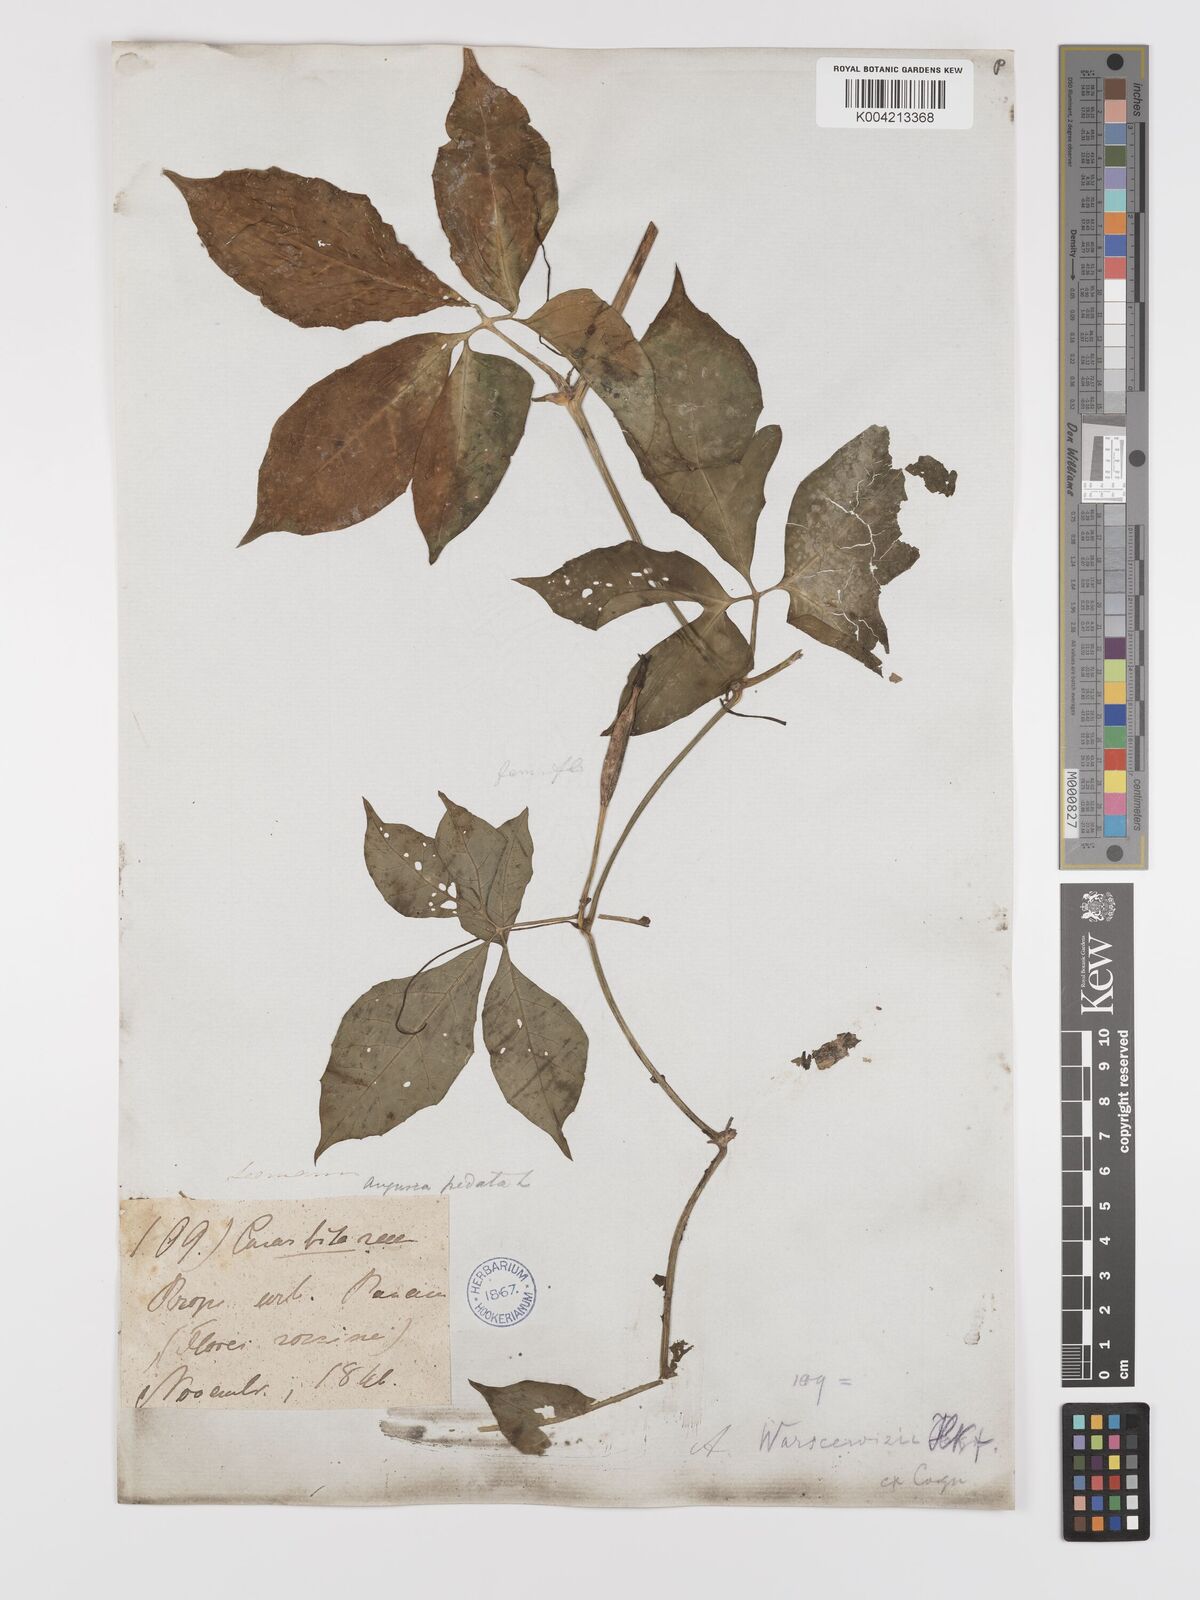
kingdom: Plantae
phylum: Tracheophyta
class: Magnoliopsida
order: Cucurbitales
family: Cucurbitaceae
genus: Psiguria
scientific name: Psiguria warscewiczii
